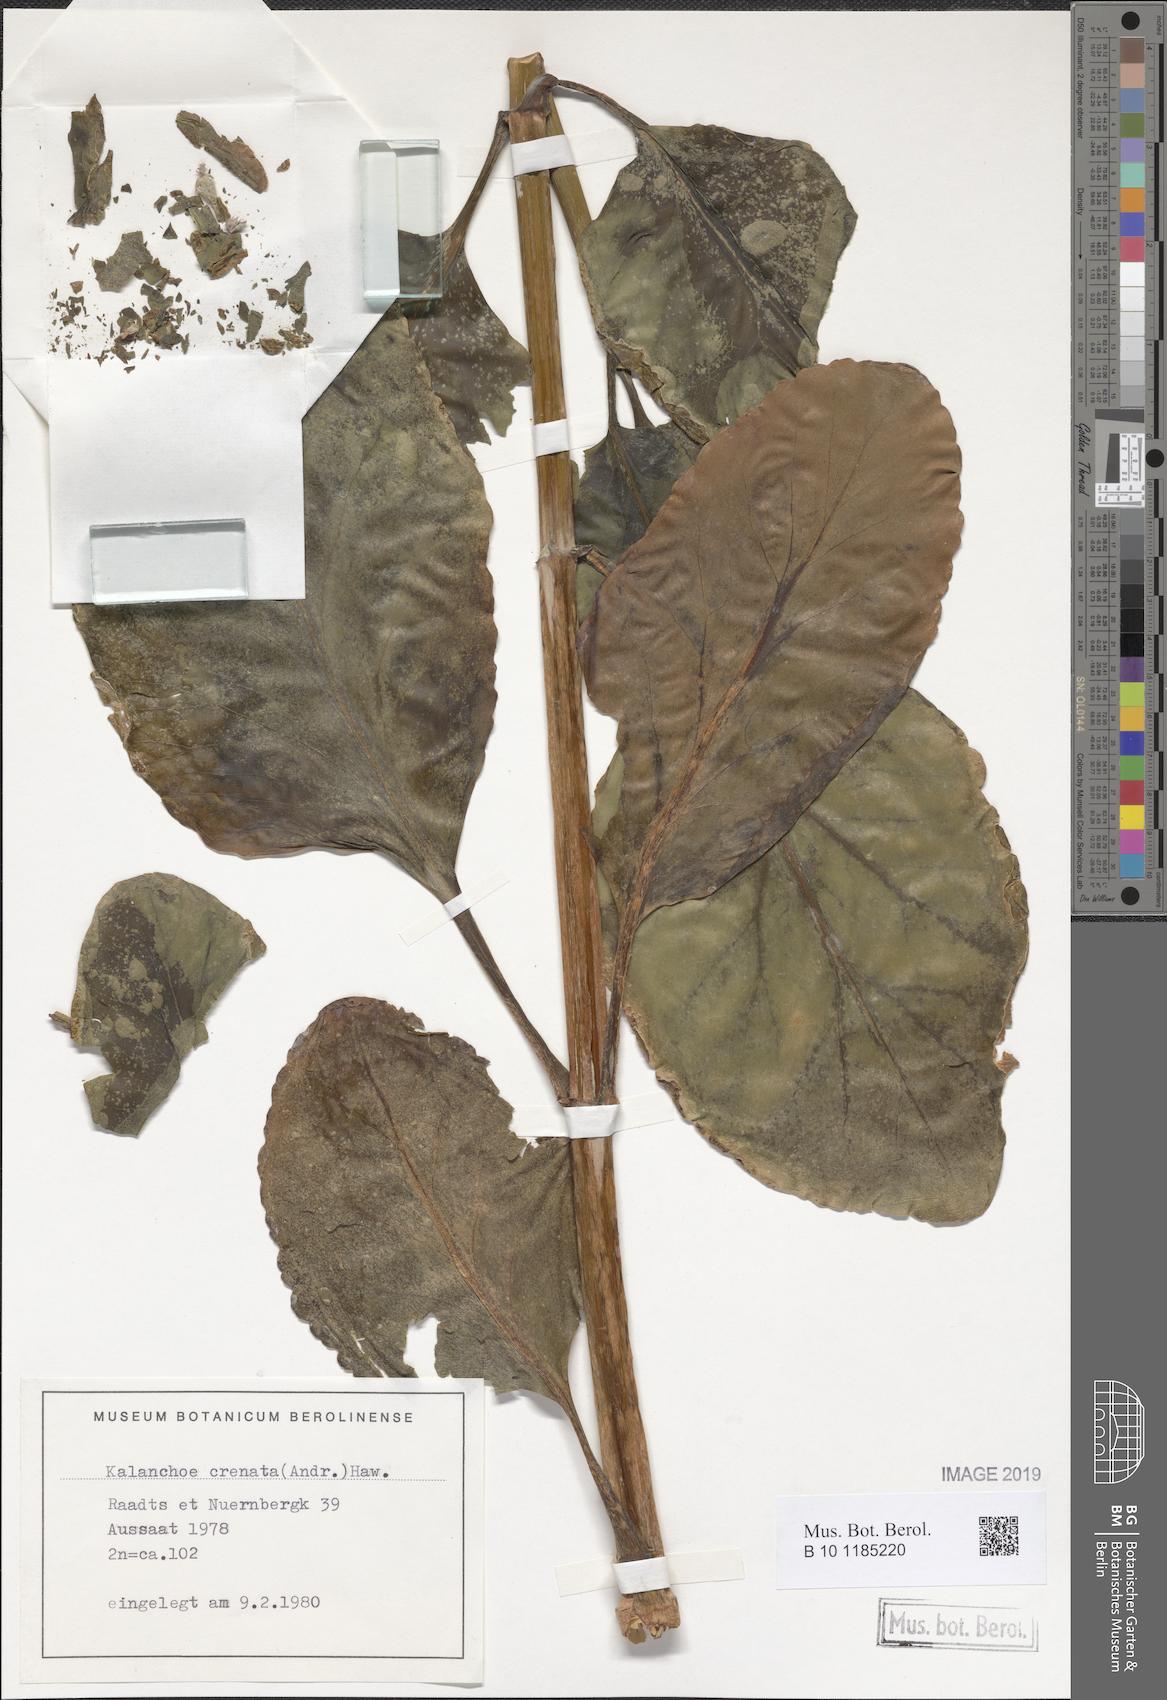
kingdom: Plantae
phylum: Tracheophyta
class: Magnoliopsida
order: Saxifragales
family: Crassulaceae
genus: Kalanchoe
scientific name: Kalanchoe crenata
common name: Neverdie
